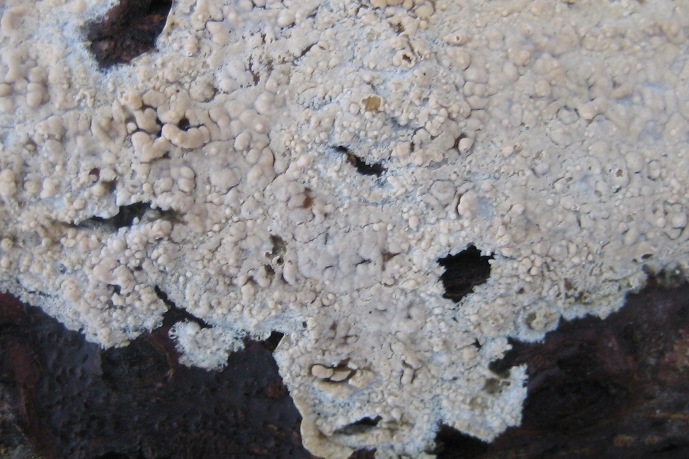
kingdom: Fungi
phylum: Basidiomycota
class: Agaricomycetes
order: Agaricales
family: Physalacriaceae
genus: Cylindrobasidium
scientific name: Cylindrobasidium evolvens
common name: sprækkehinde
